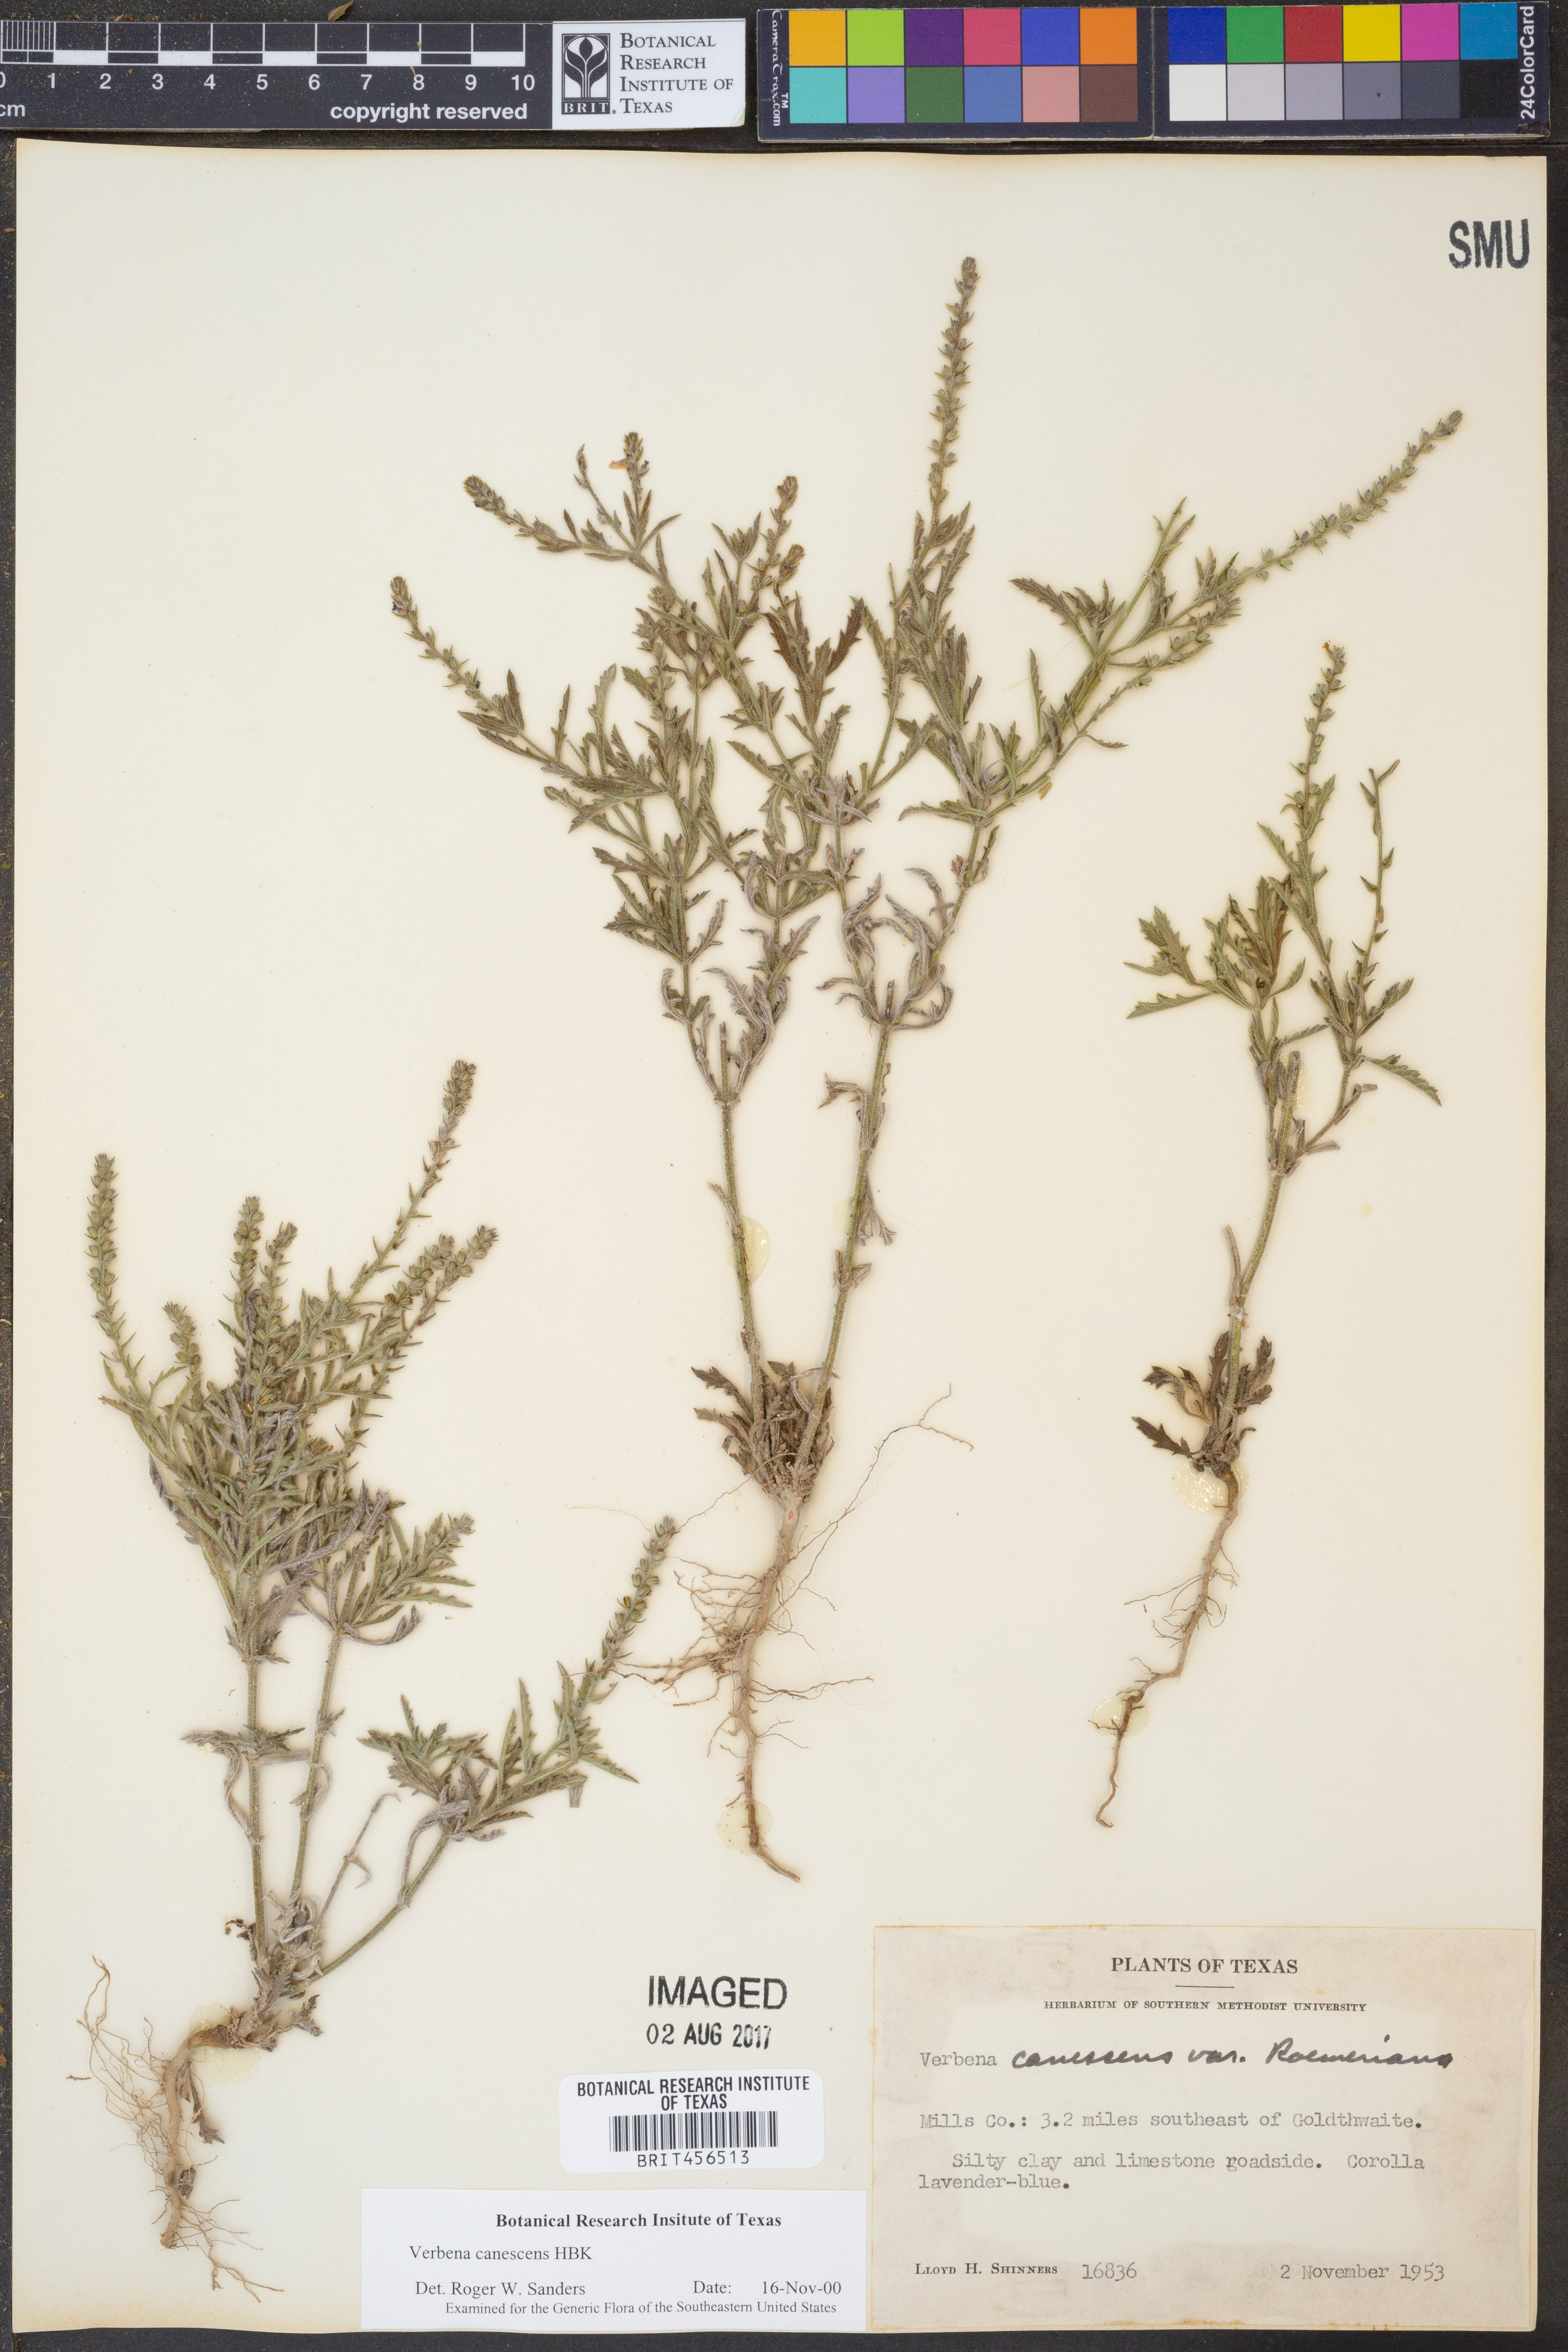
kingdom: Plantae
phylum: Tracheophyta
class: Magnoliopsida
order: Lamiales
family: Verbenaceae
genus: Verbena
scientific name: Verbena canescens
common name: Gray vervain
